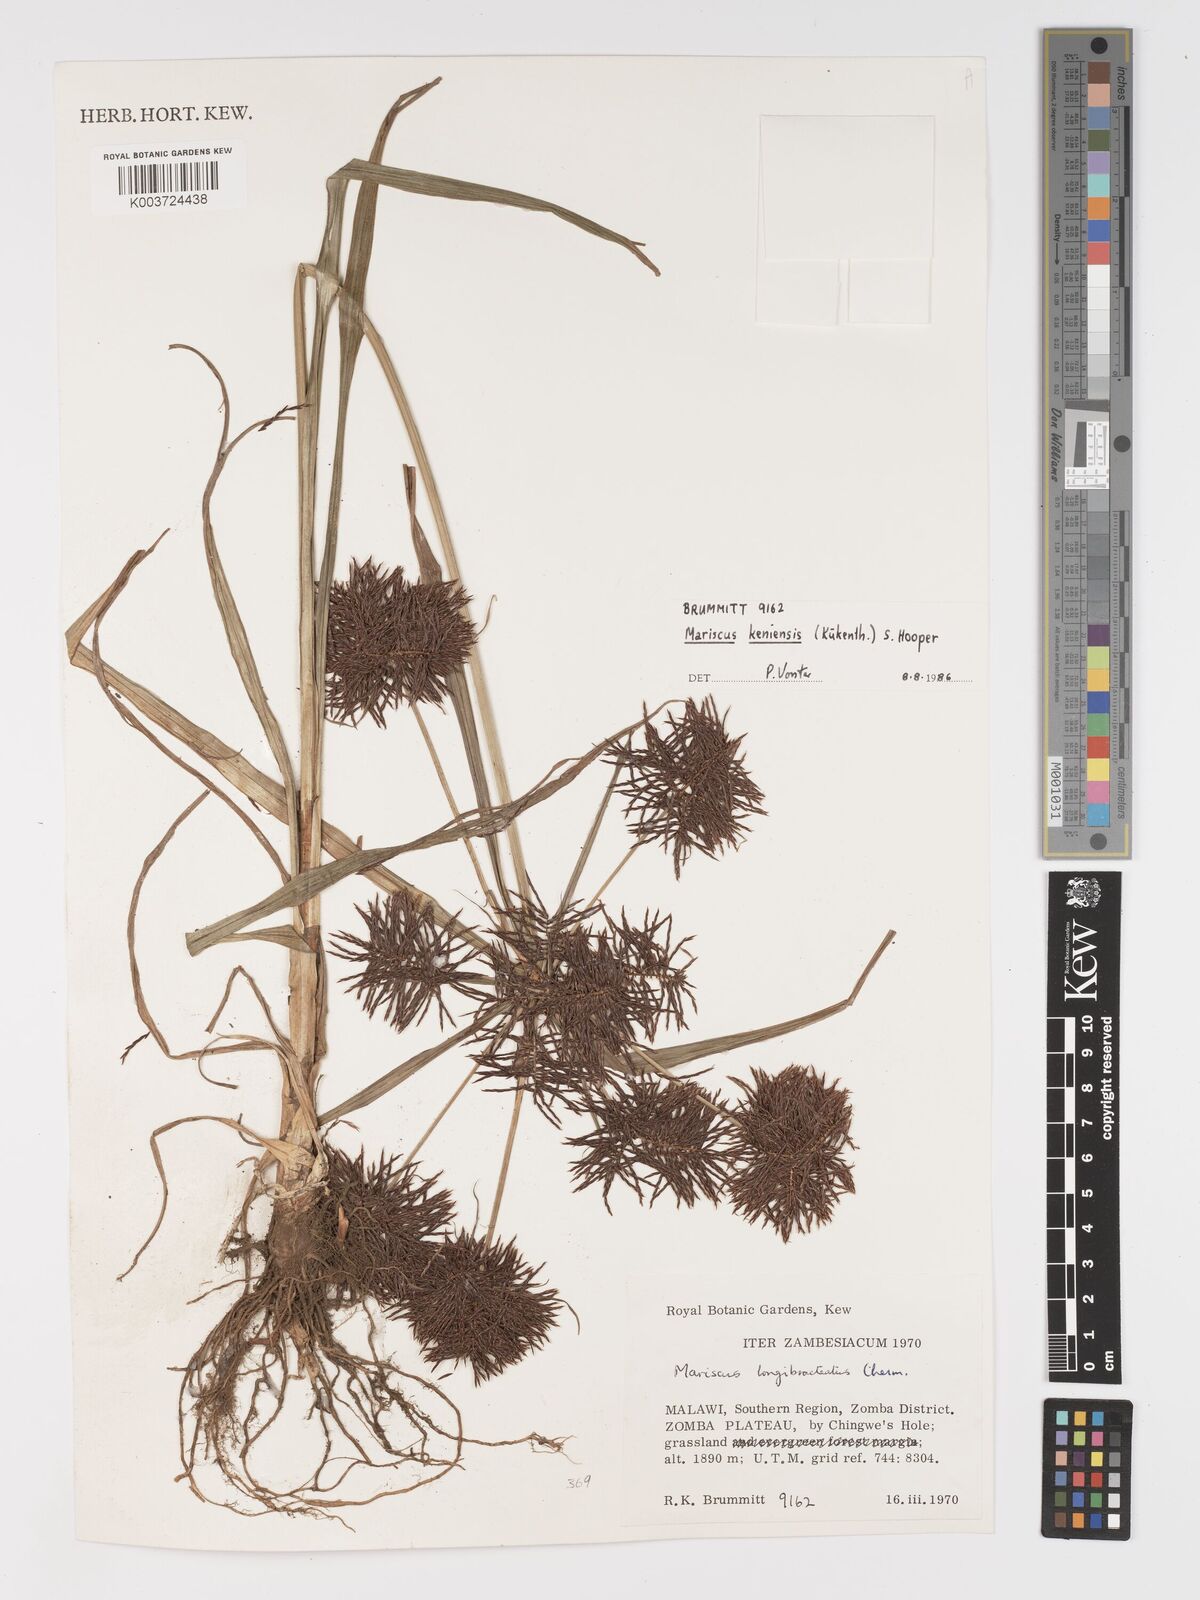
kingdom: Plantae
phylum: Tracheophyta
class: Liliopsida
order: Poales
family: Cyperaceae
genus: Cyperus
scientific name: Cyperus distans
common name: Slender cyperus
